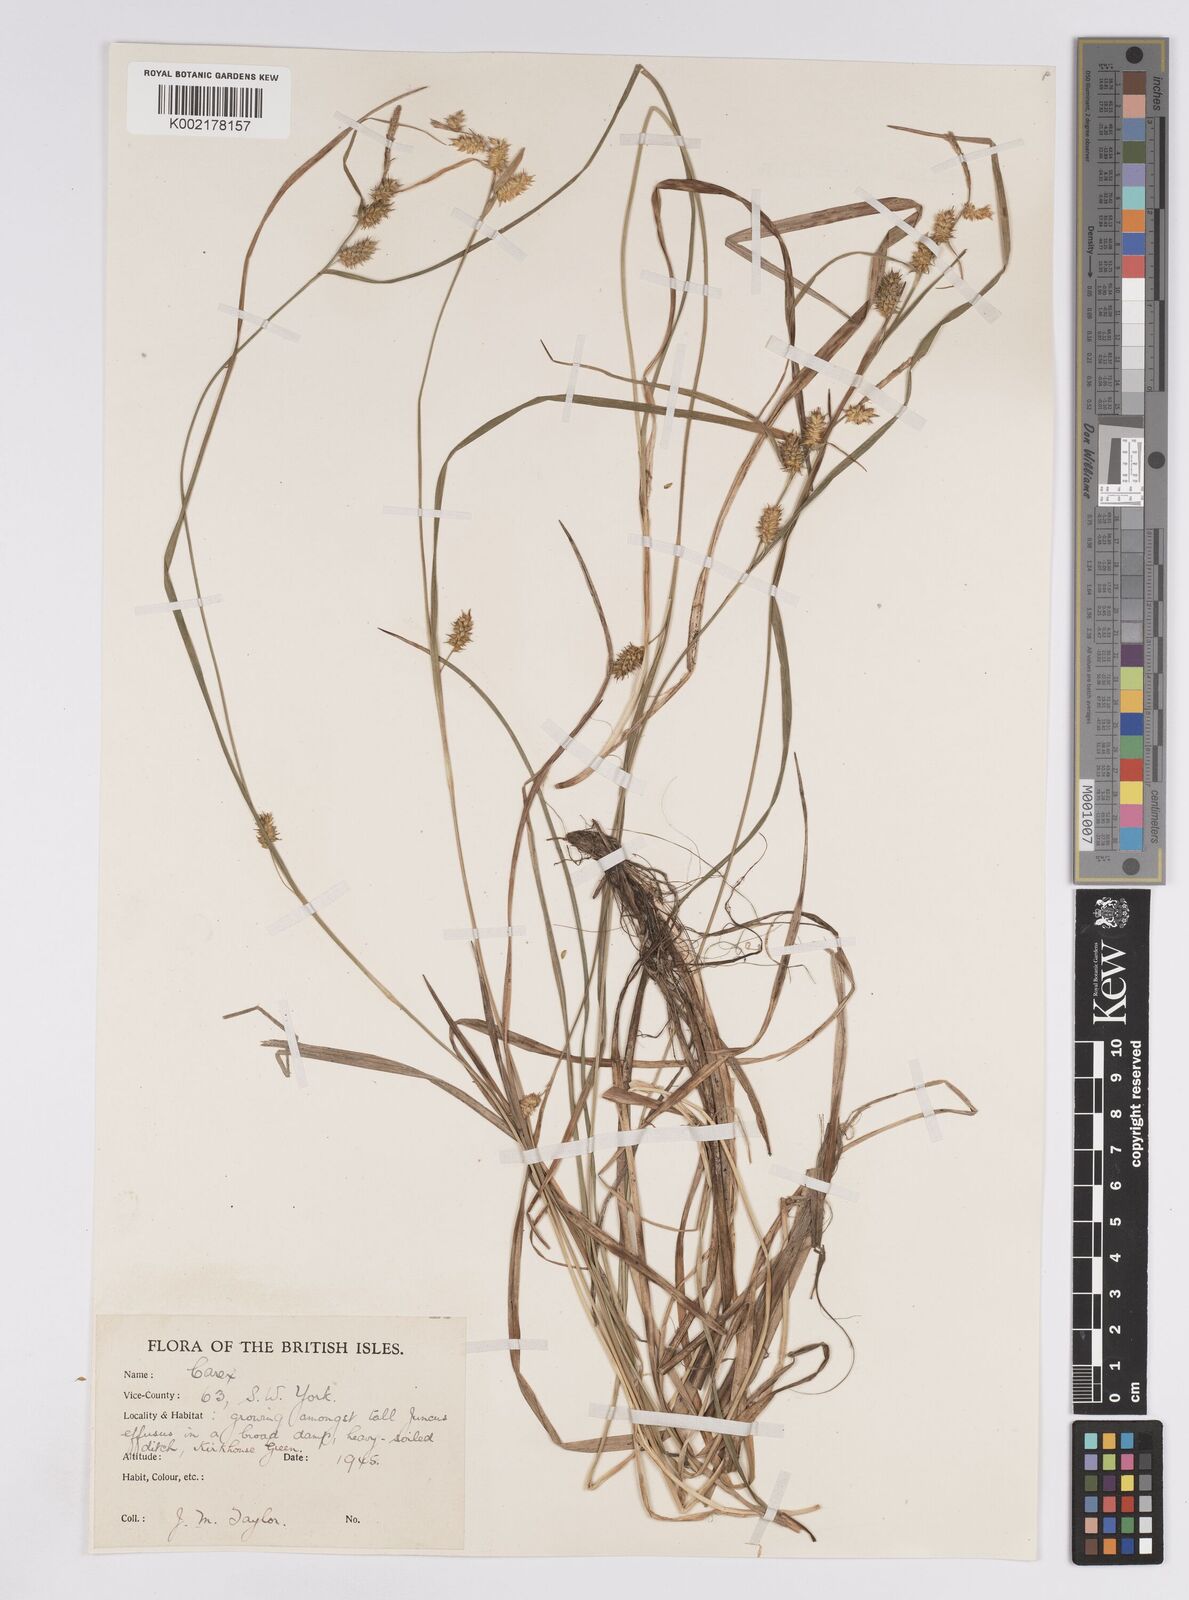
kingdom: Plantae
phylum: Tracheophyta
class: Liliopsida
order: Poales
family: Cyperaceae
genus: Carex
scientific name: Carex demissa
